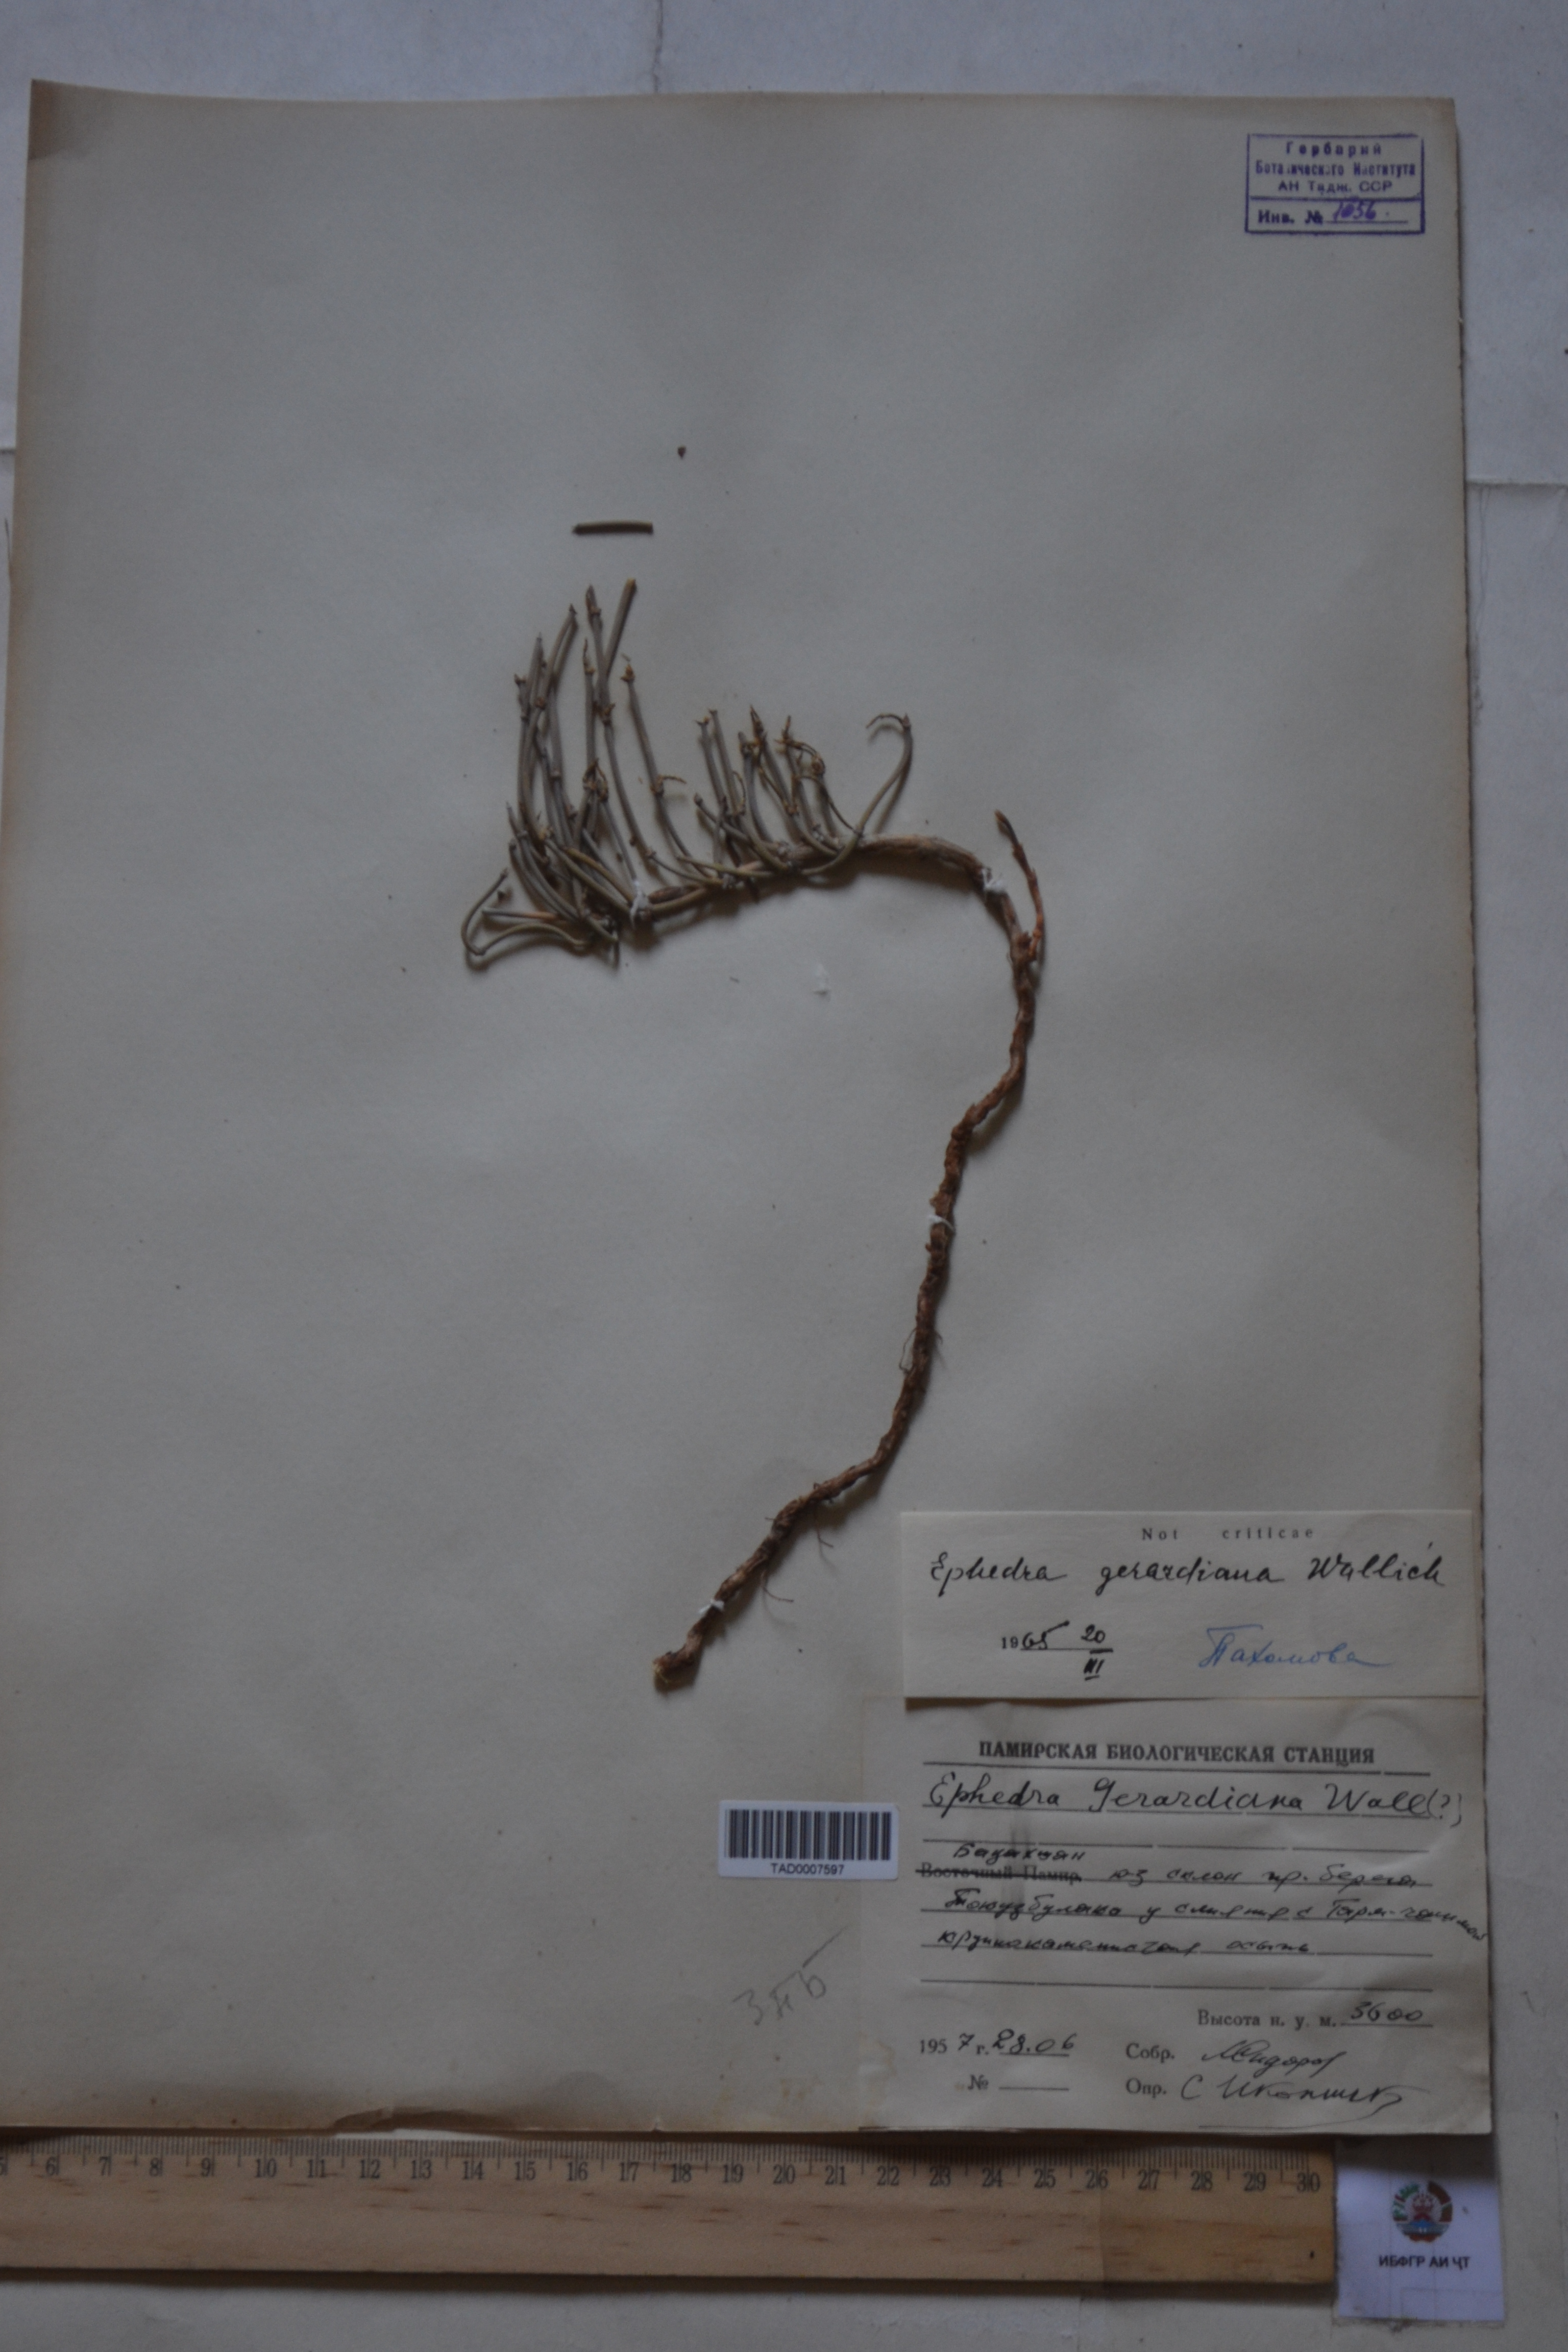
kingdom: Plantae
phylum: Tracheophyta
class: Gnetopsida
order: Ephedrales
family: Ephedraceae
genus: Ephedra
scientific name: Ephedra gerardiana
